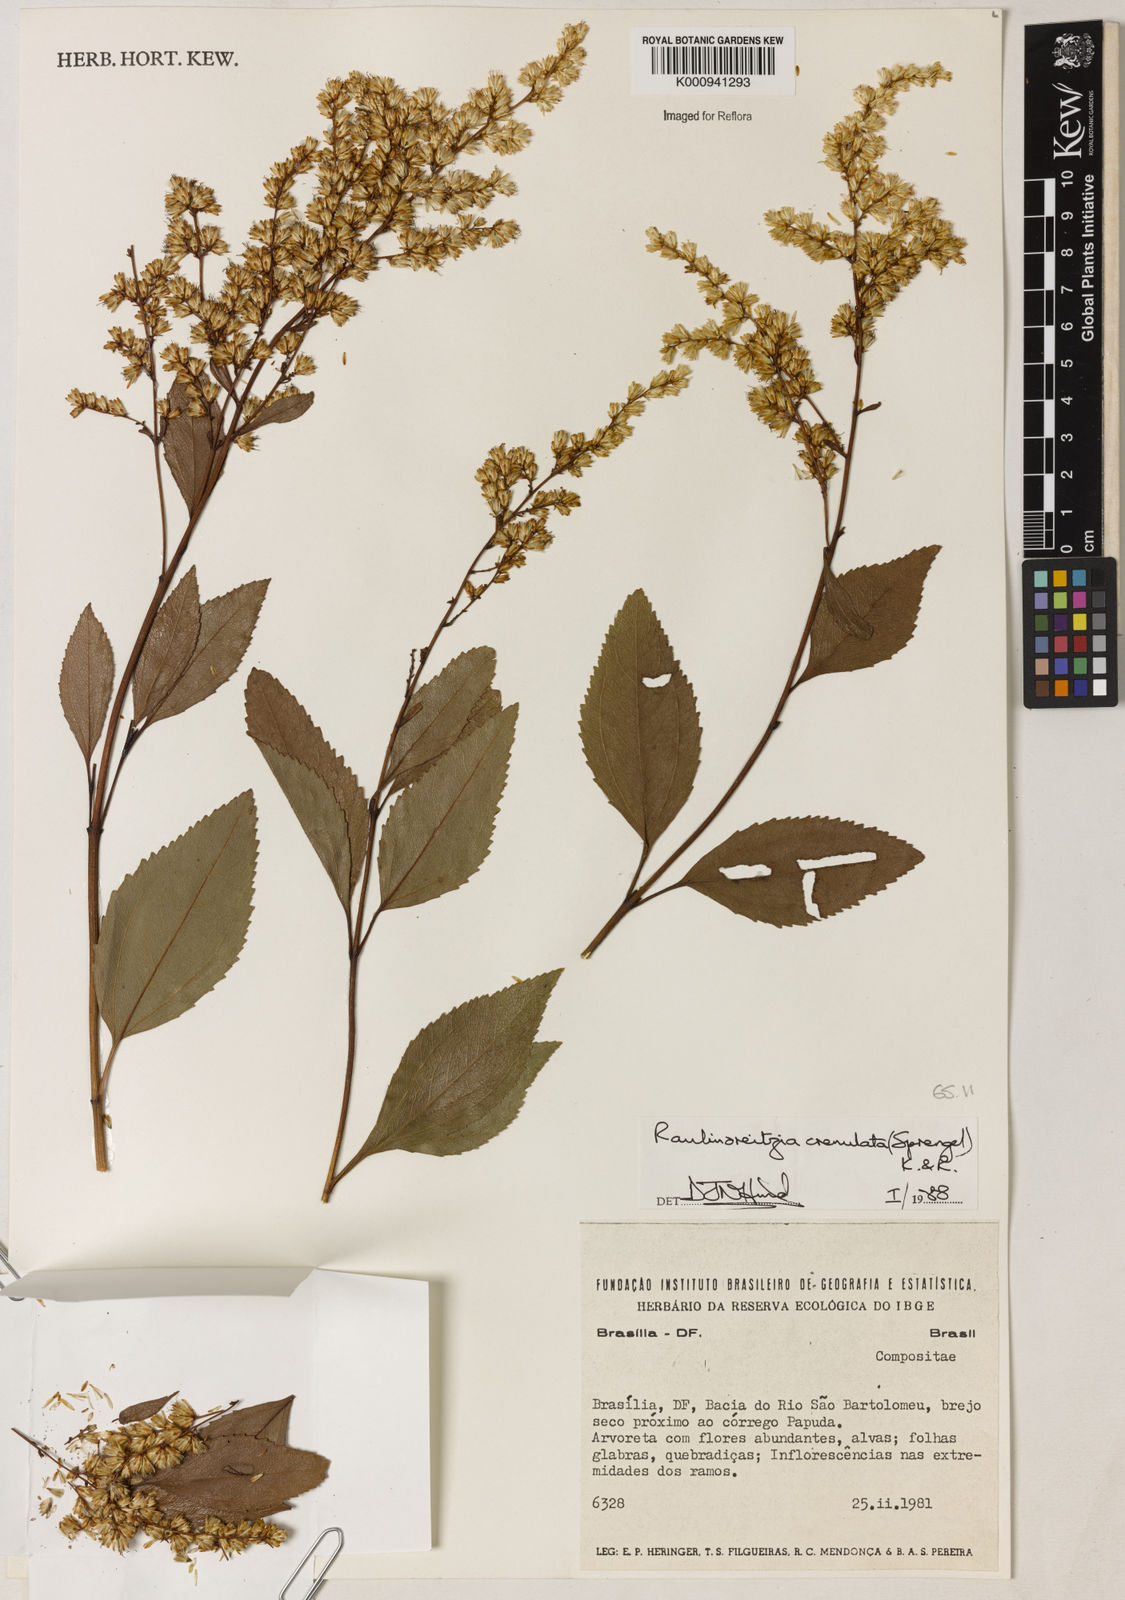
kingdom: Plantae
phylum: Tracheophyta
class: Magnoliopsida
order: Asterales
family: Asteraceae
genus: Raulinoreitzia
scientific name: Raulinoreitzia crenulata
